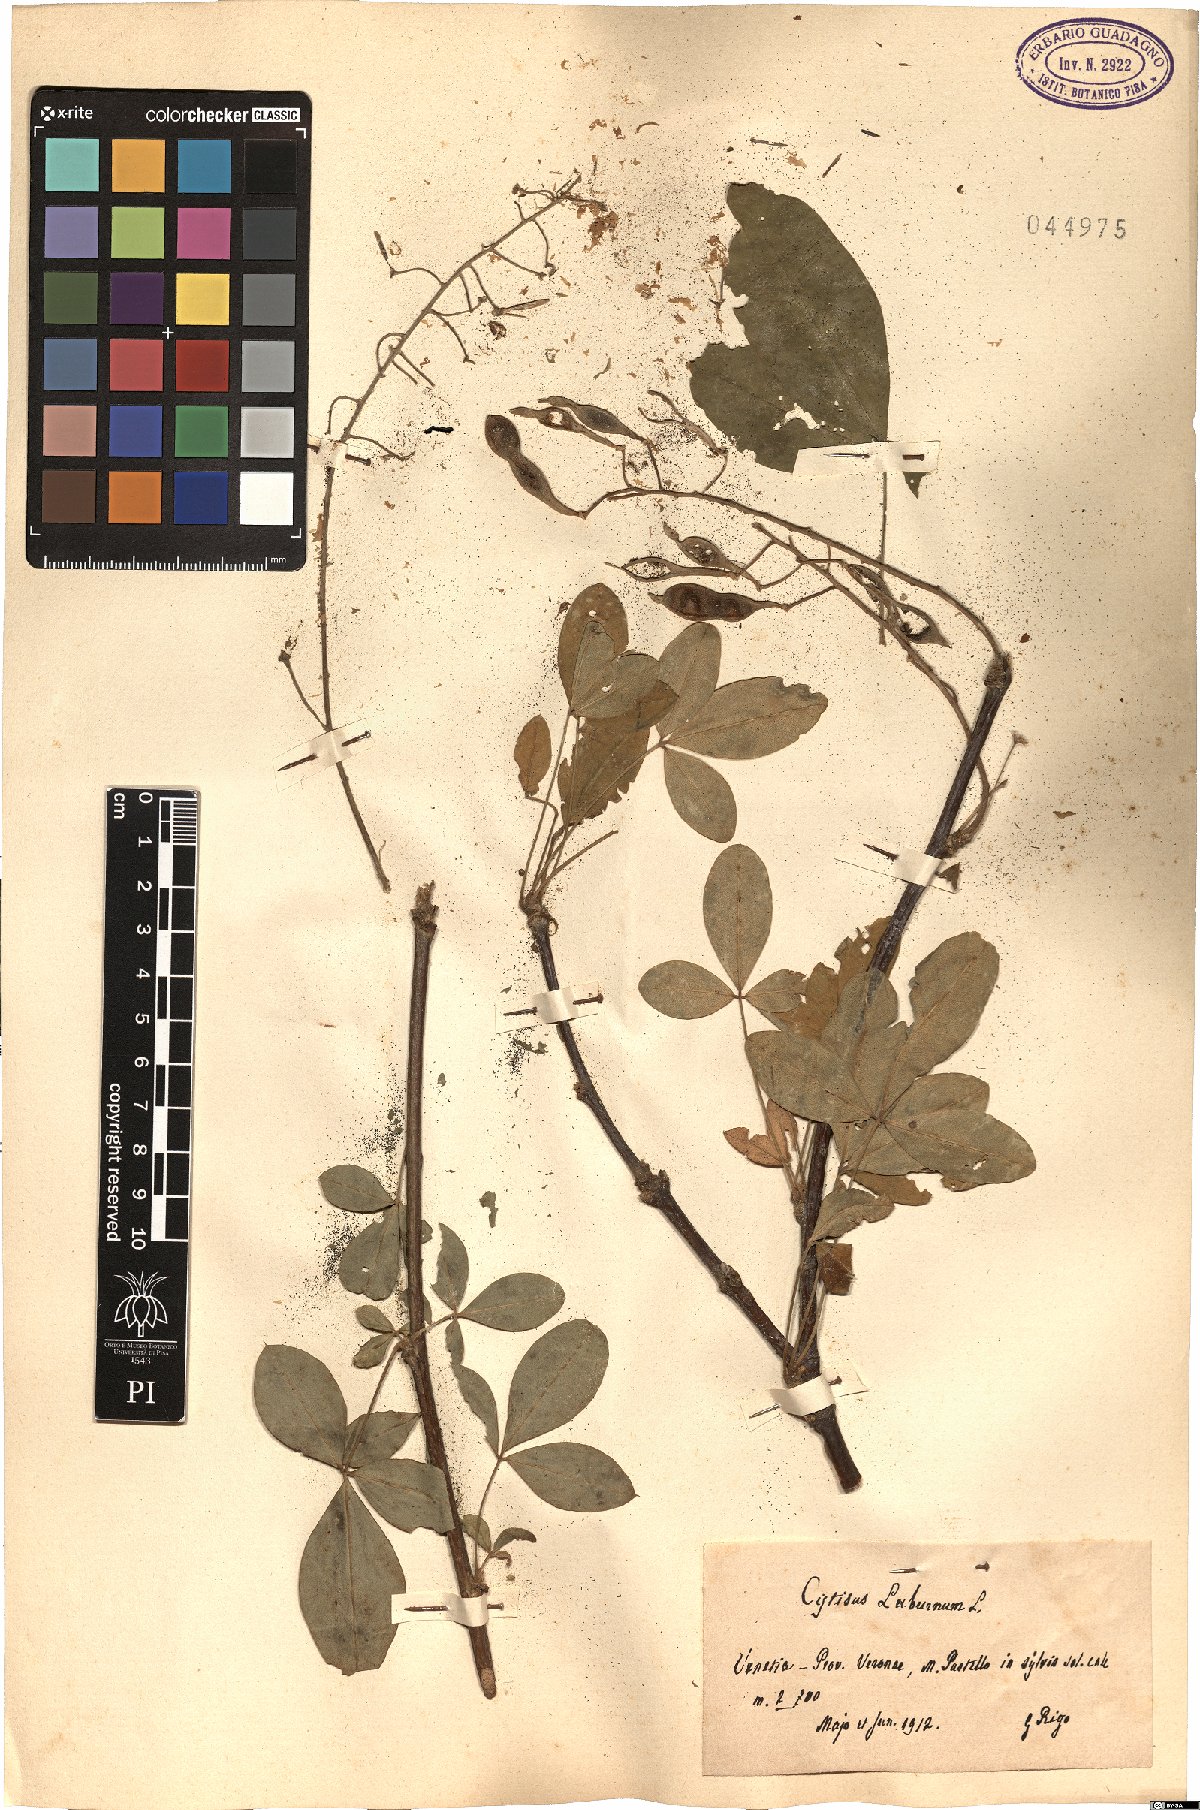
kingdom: Plantae
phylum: Tracheophyta
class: Magnoliopsida
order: Fabales
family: Fabaceae
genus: Laburnum
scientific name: Laburnum anagyroides
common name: Laburnum
